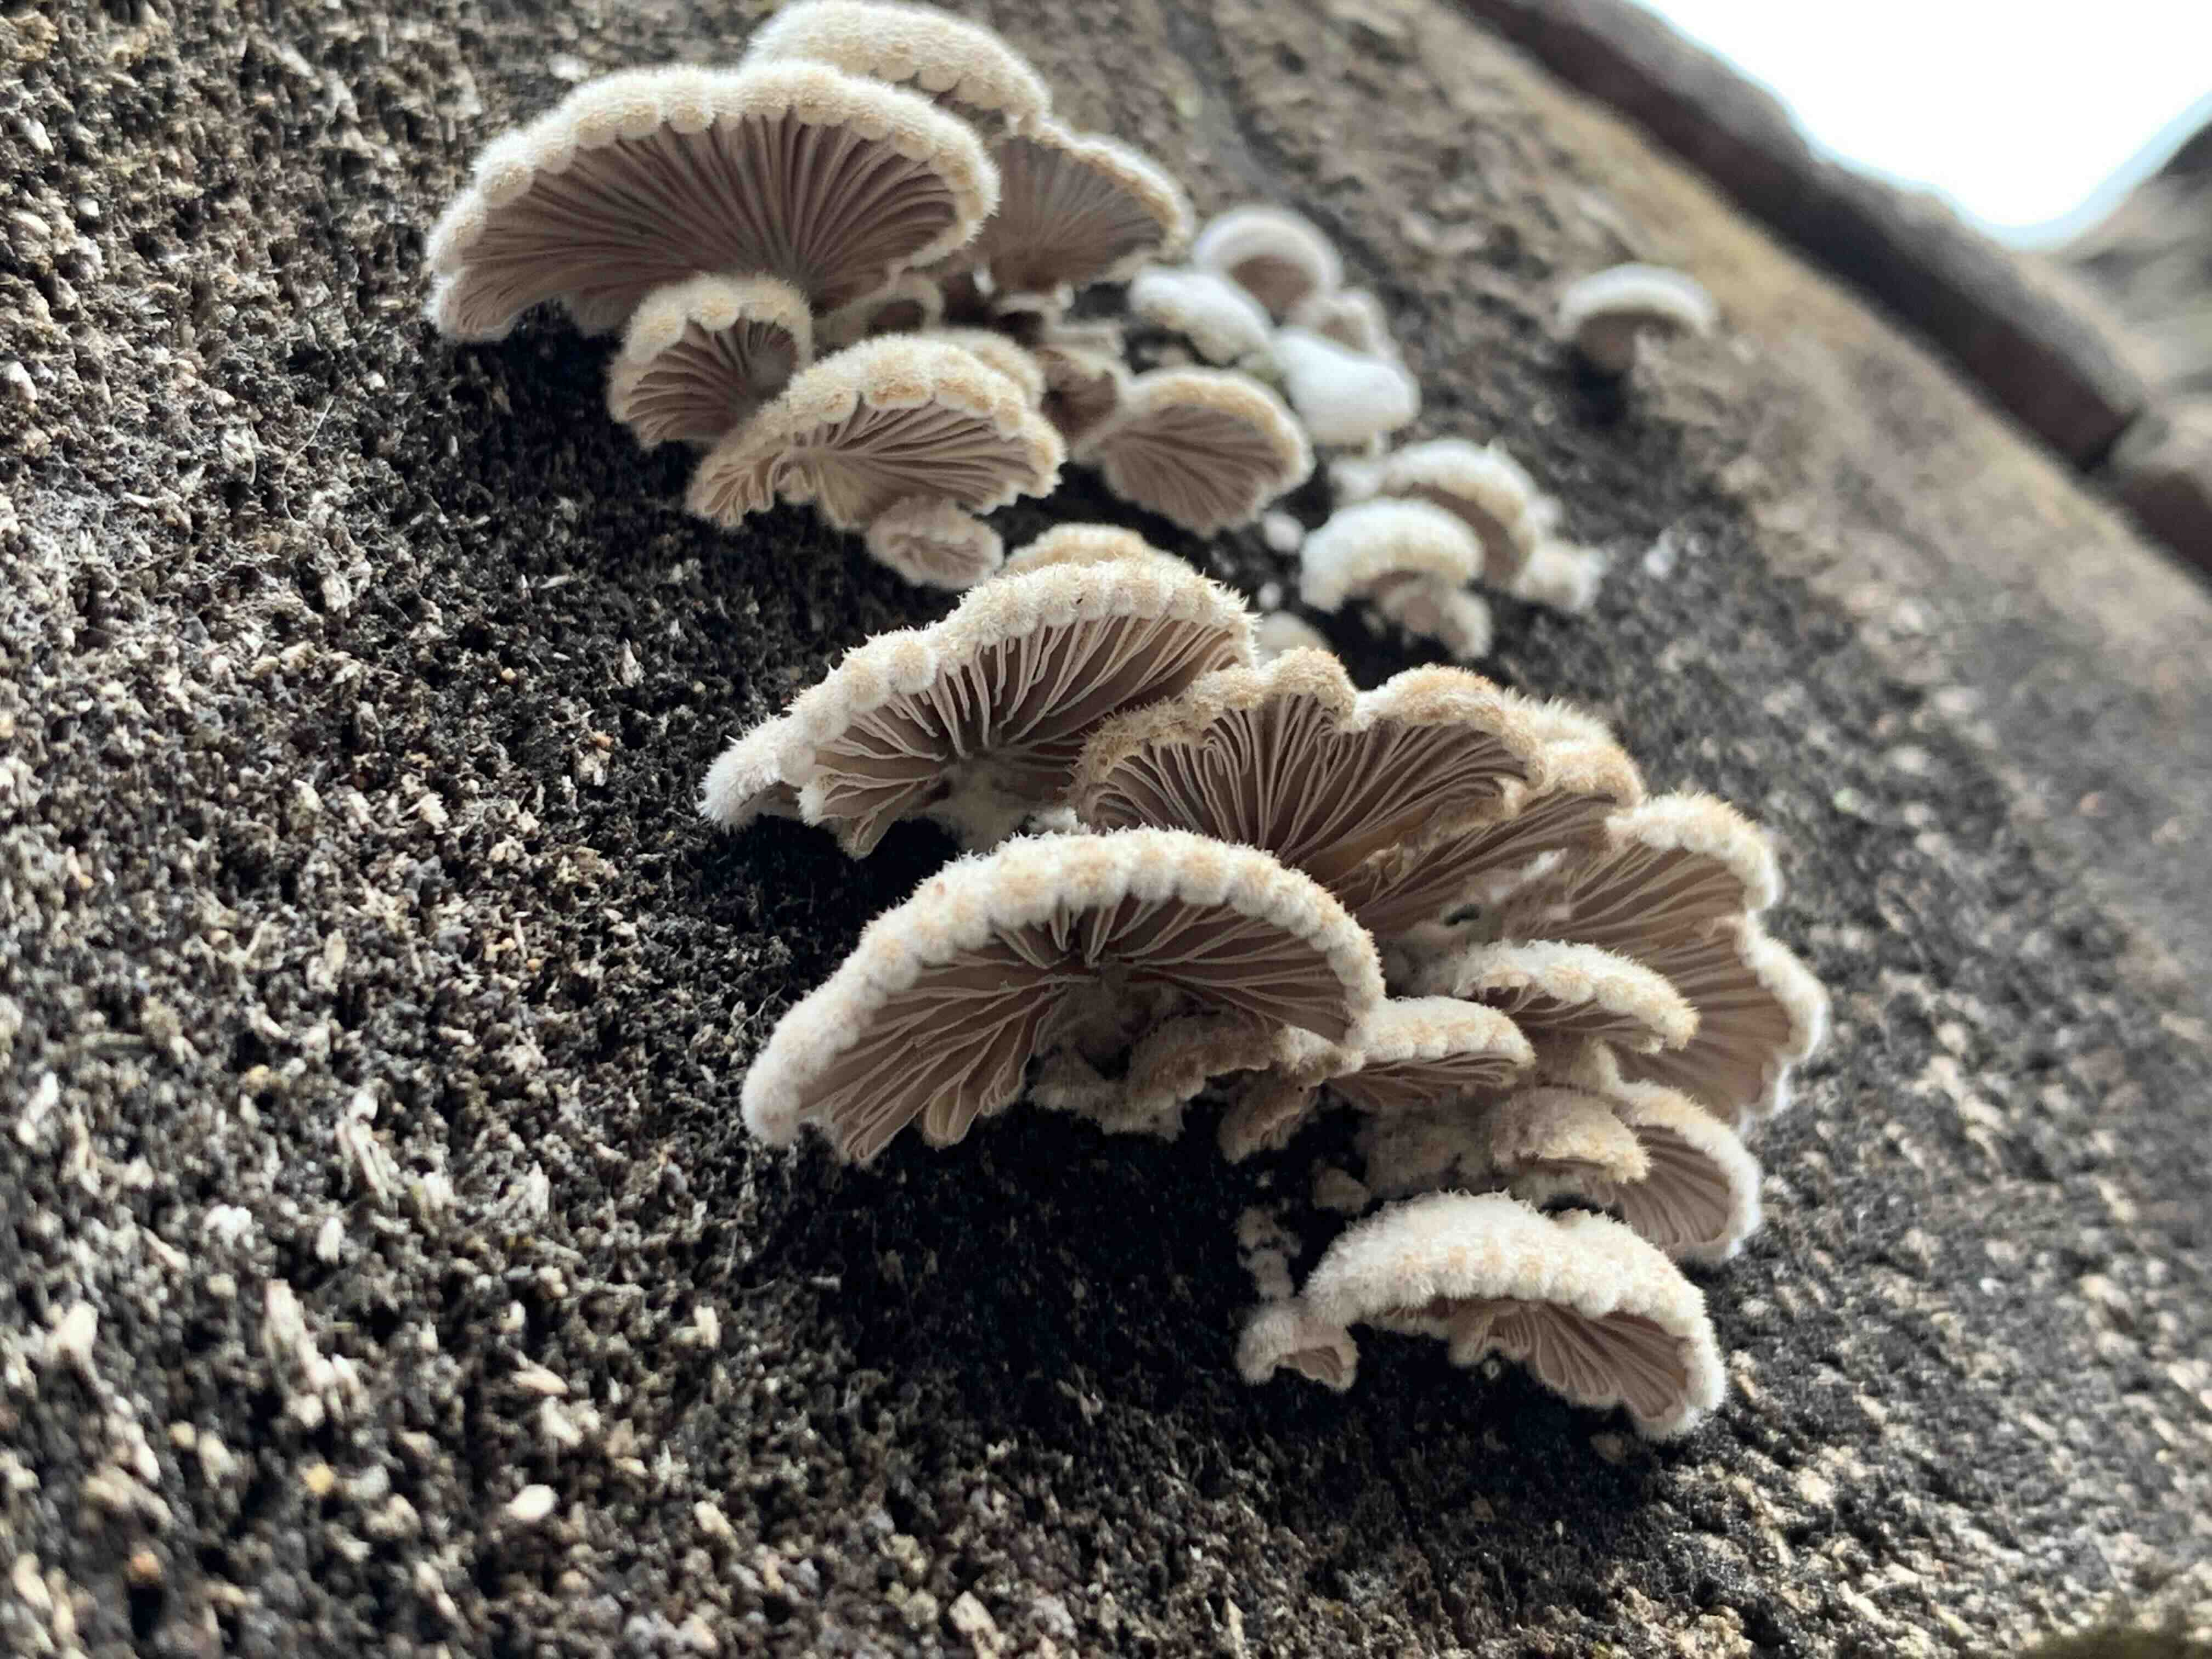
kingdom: Fungi
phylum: Basidiomycota
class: Agaricomycetes
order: Agaricales
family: Schizophyllaceae
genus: Schizophyllum
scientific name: Schizophyllum commune
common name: kløvblad
